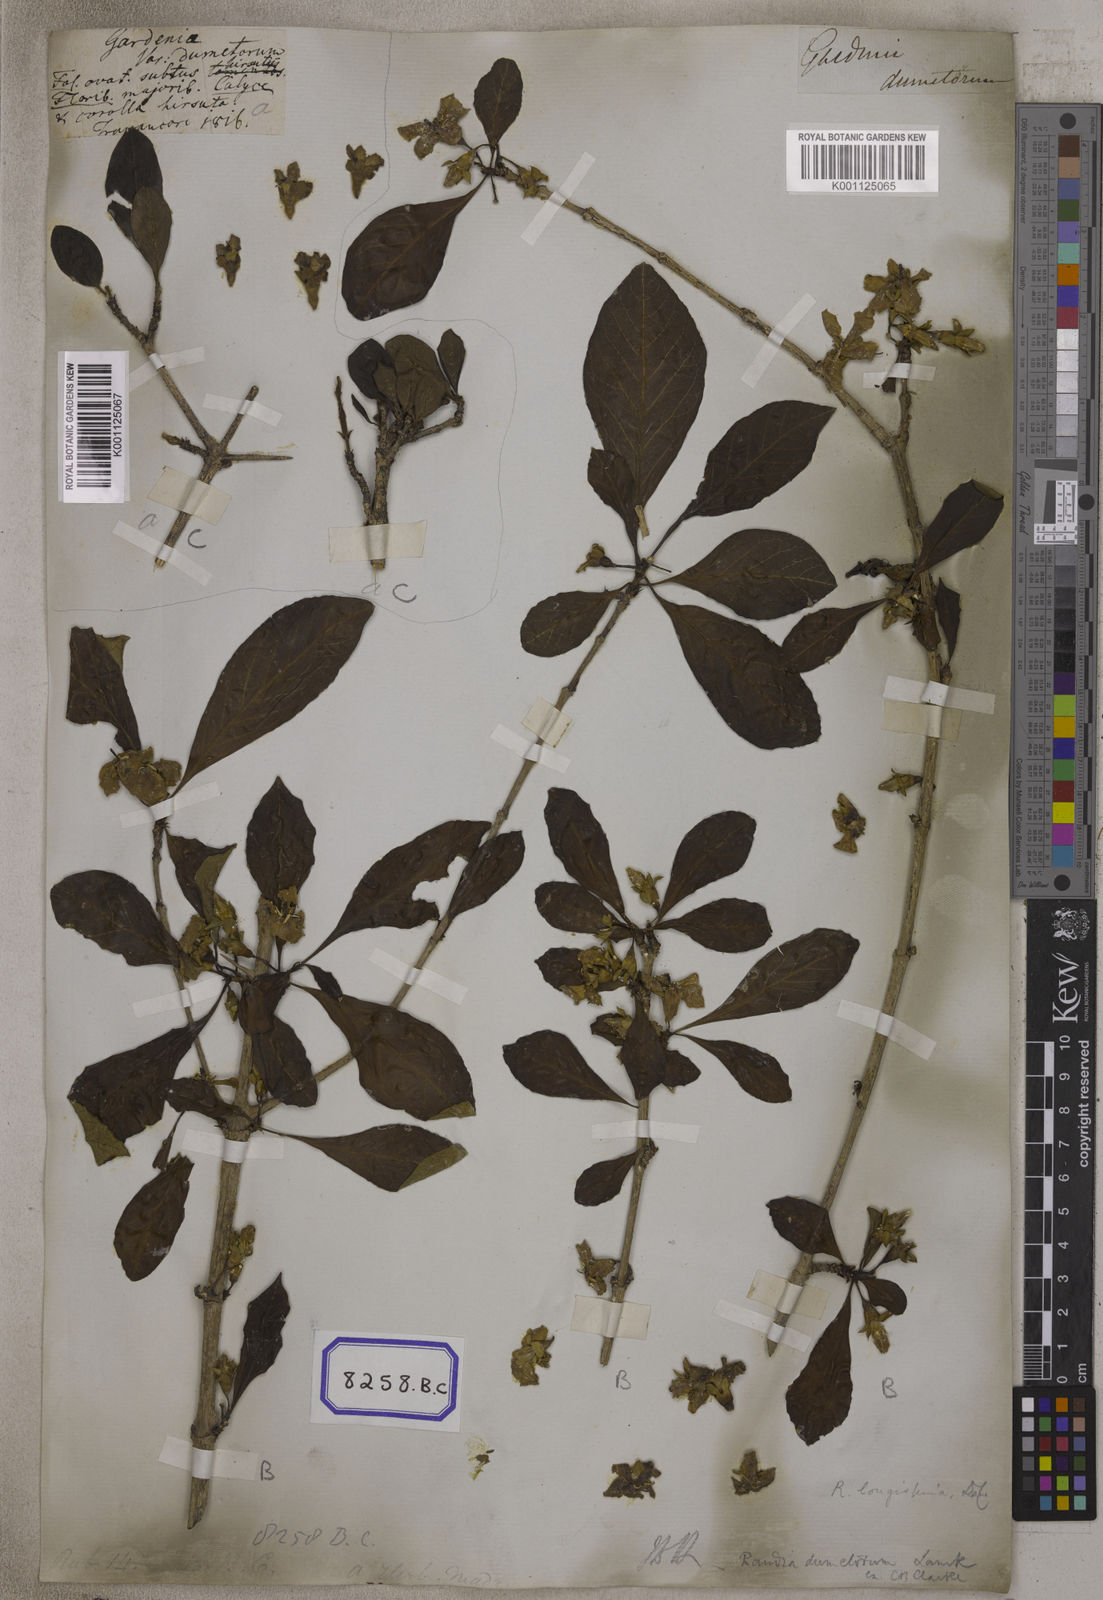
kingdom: Plantae
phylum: Tracheophyta
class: Magnoliopsida
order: Gentianales
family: Rubiaceae
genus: Gardenia
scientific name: Gardenia
